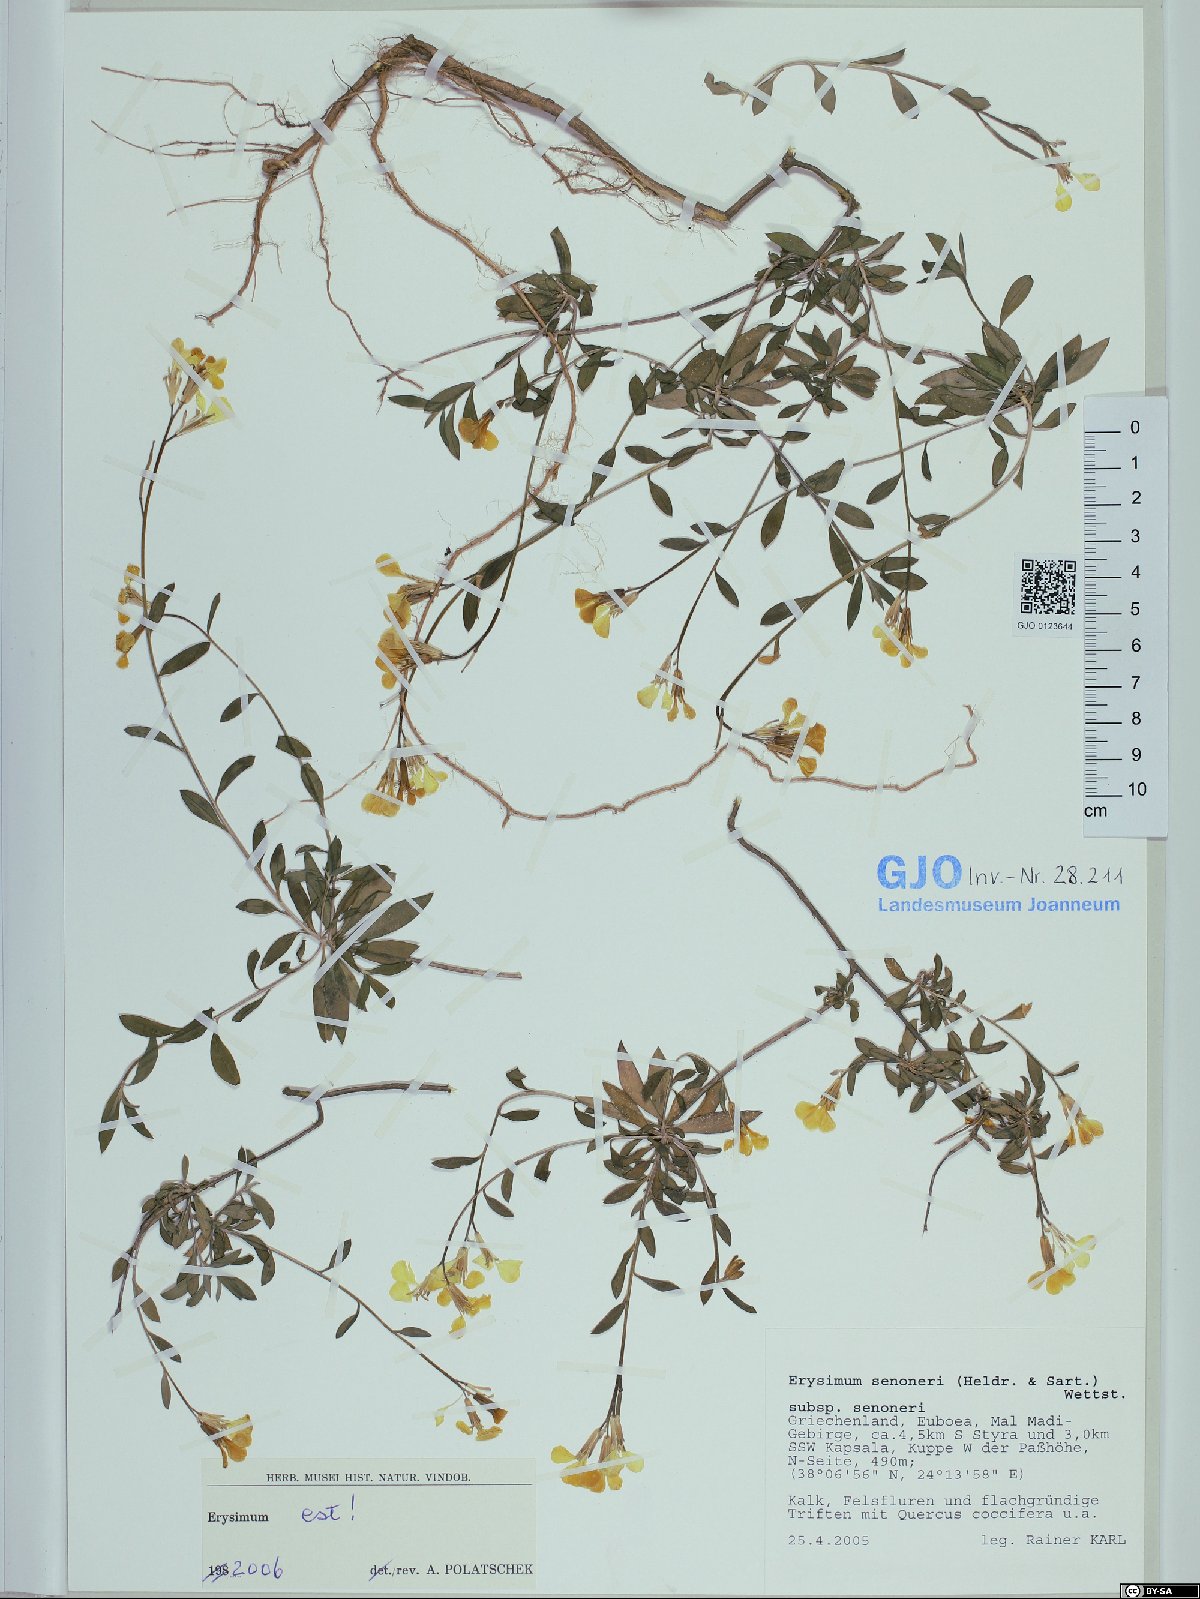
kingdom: Plantae
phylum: Tracheophyta
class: Magnoliopsida
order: Brassicales
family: Brassicaceae
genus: Erysimum
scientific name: Erysimum senoneri
